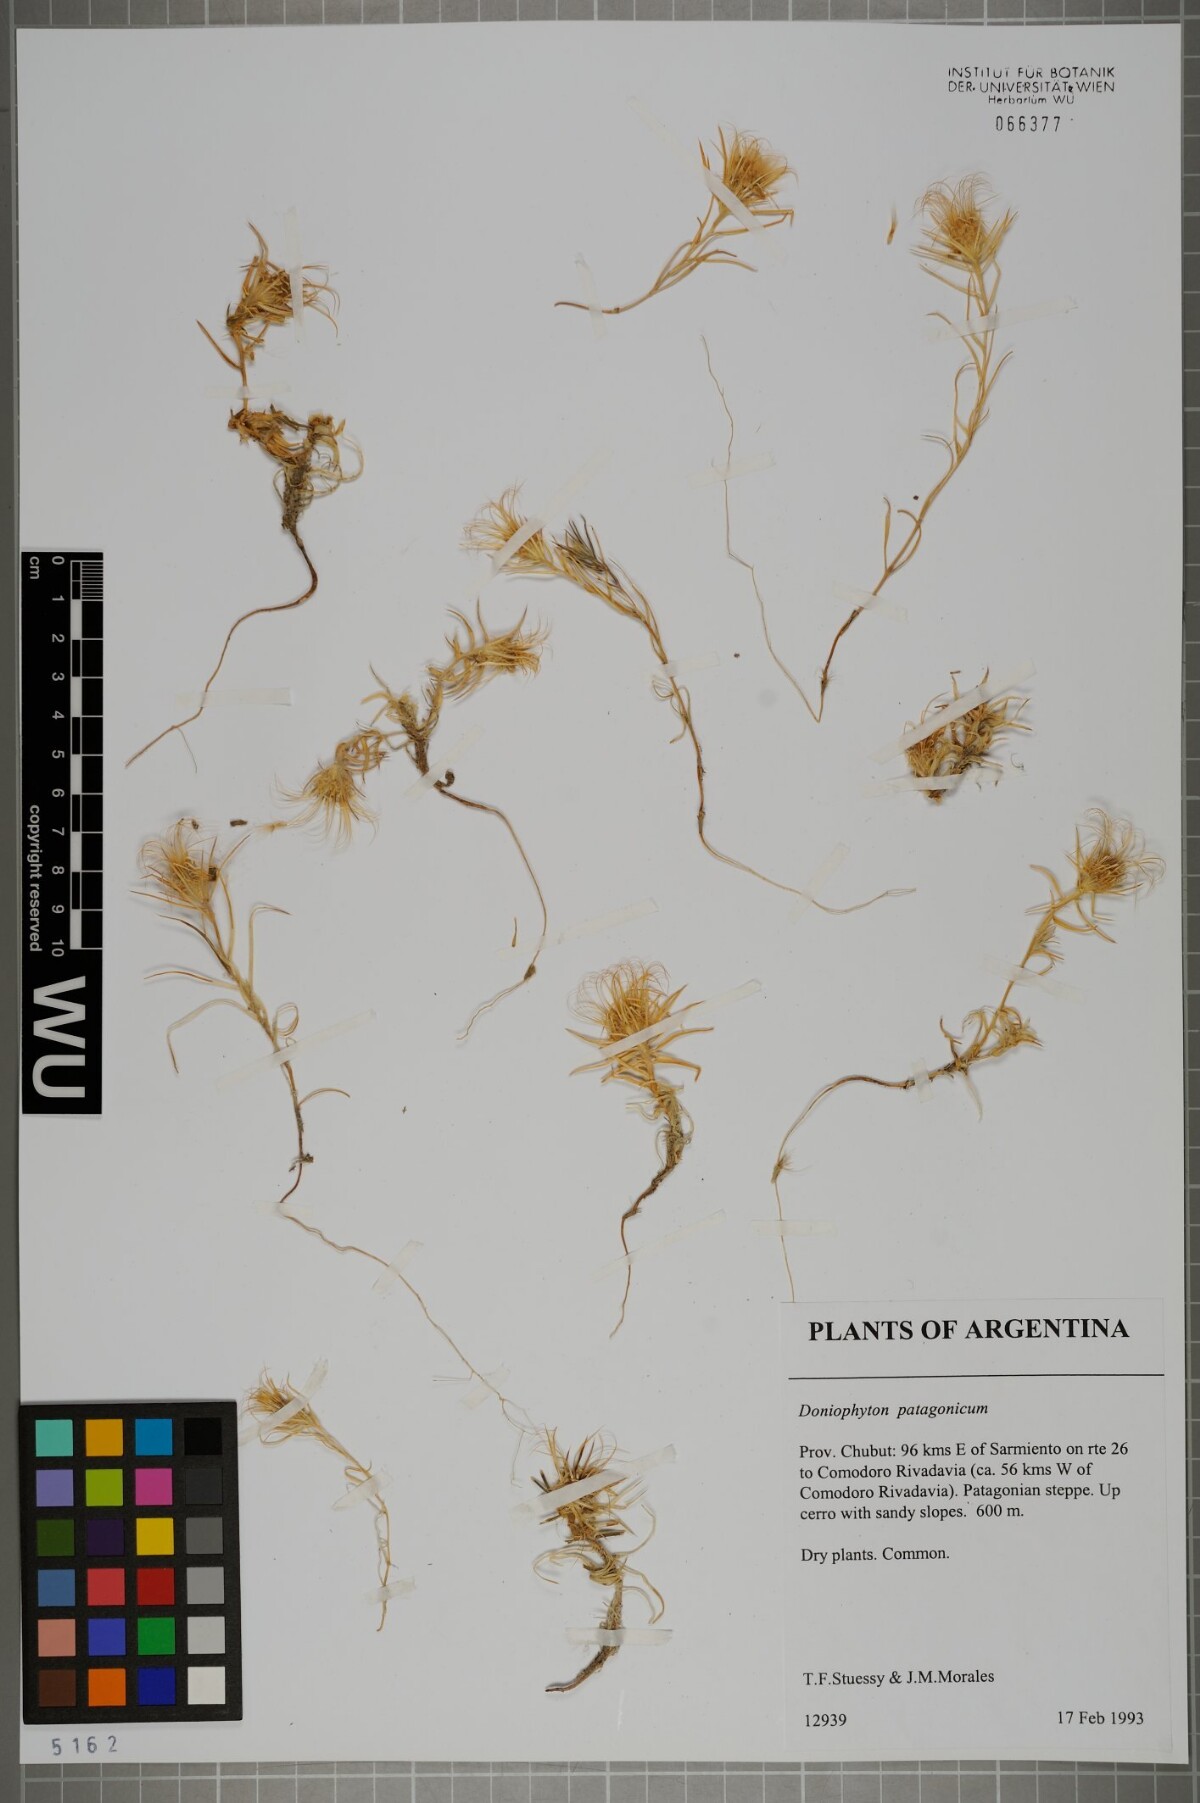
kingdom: Plantae
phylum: Tracheophyta
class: Magnoliopsida
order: Asterales
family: Asteraceae
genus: Doniophyton
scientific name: Doniophyton anomalum
